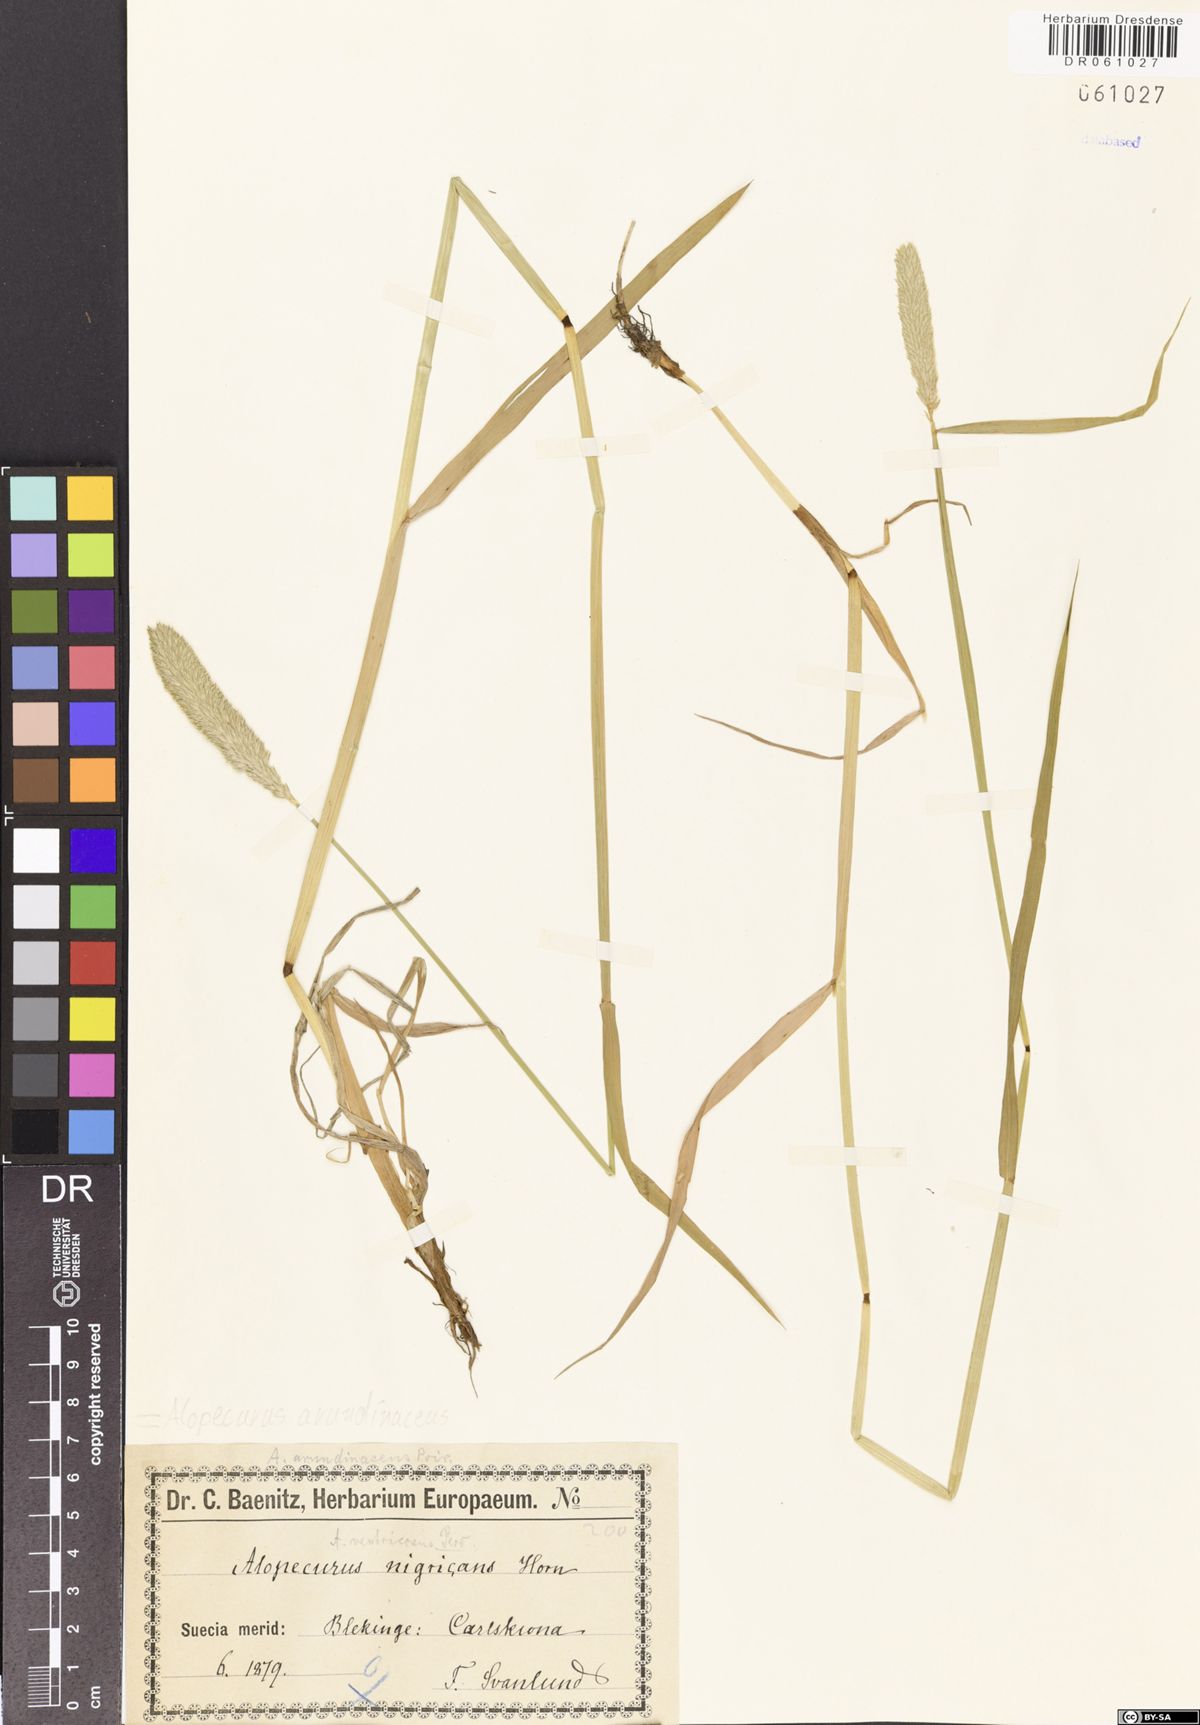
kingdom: Plantae
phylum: Tracheophyta
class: Liliopsida
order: Poales
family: Poaceae
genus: Alopecurus
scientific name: Alopecurus arundinaceus
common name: Creeping meadow foxtail
